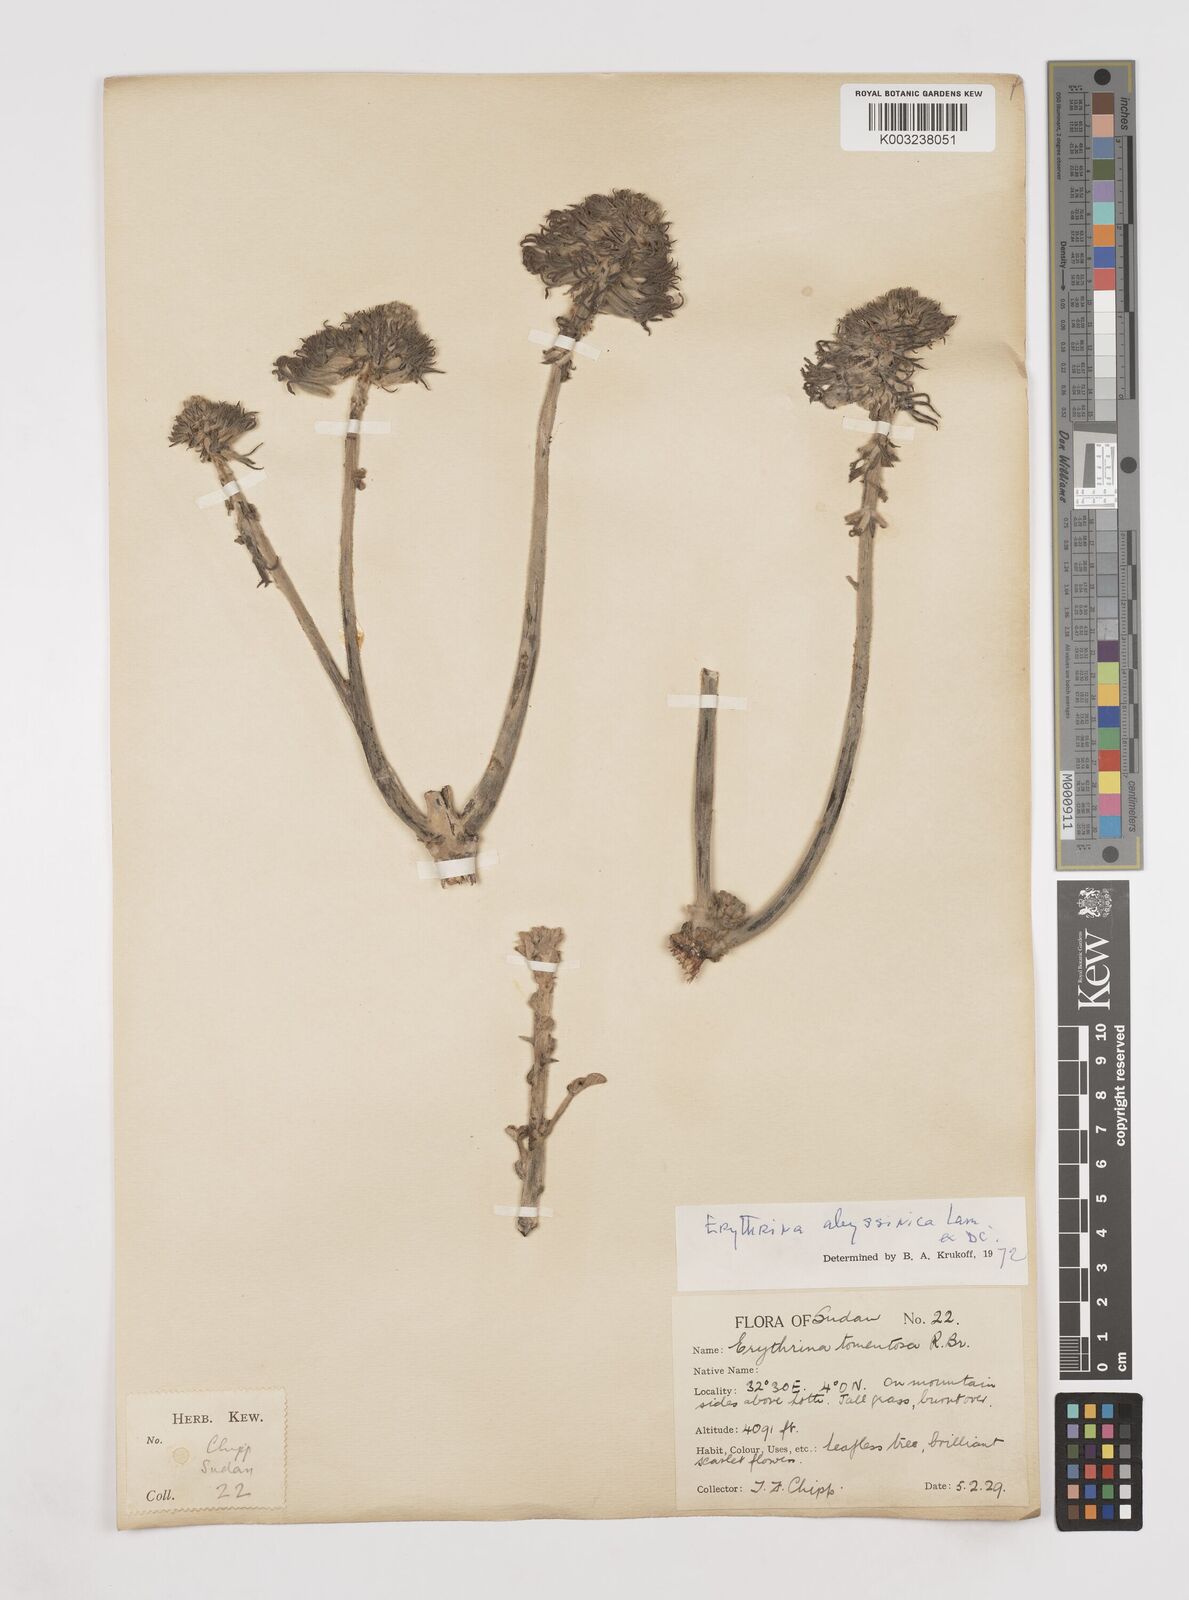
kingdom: Plantae
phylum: Tracheophyta
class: Magnoliopsida
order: Fabales
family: Fabaceae
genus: Erythrina
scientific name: Erythrina abyssinica
